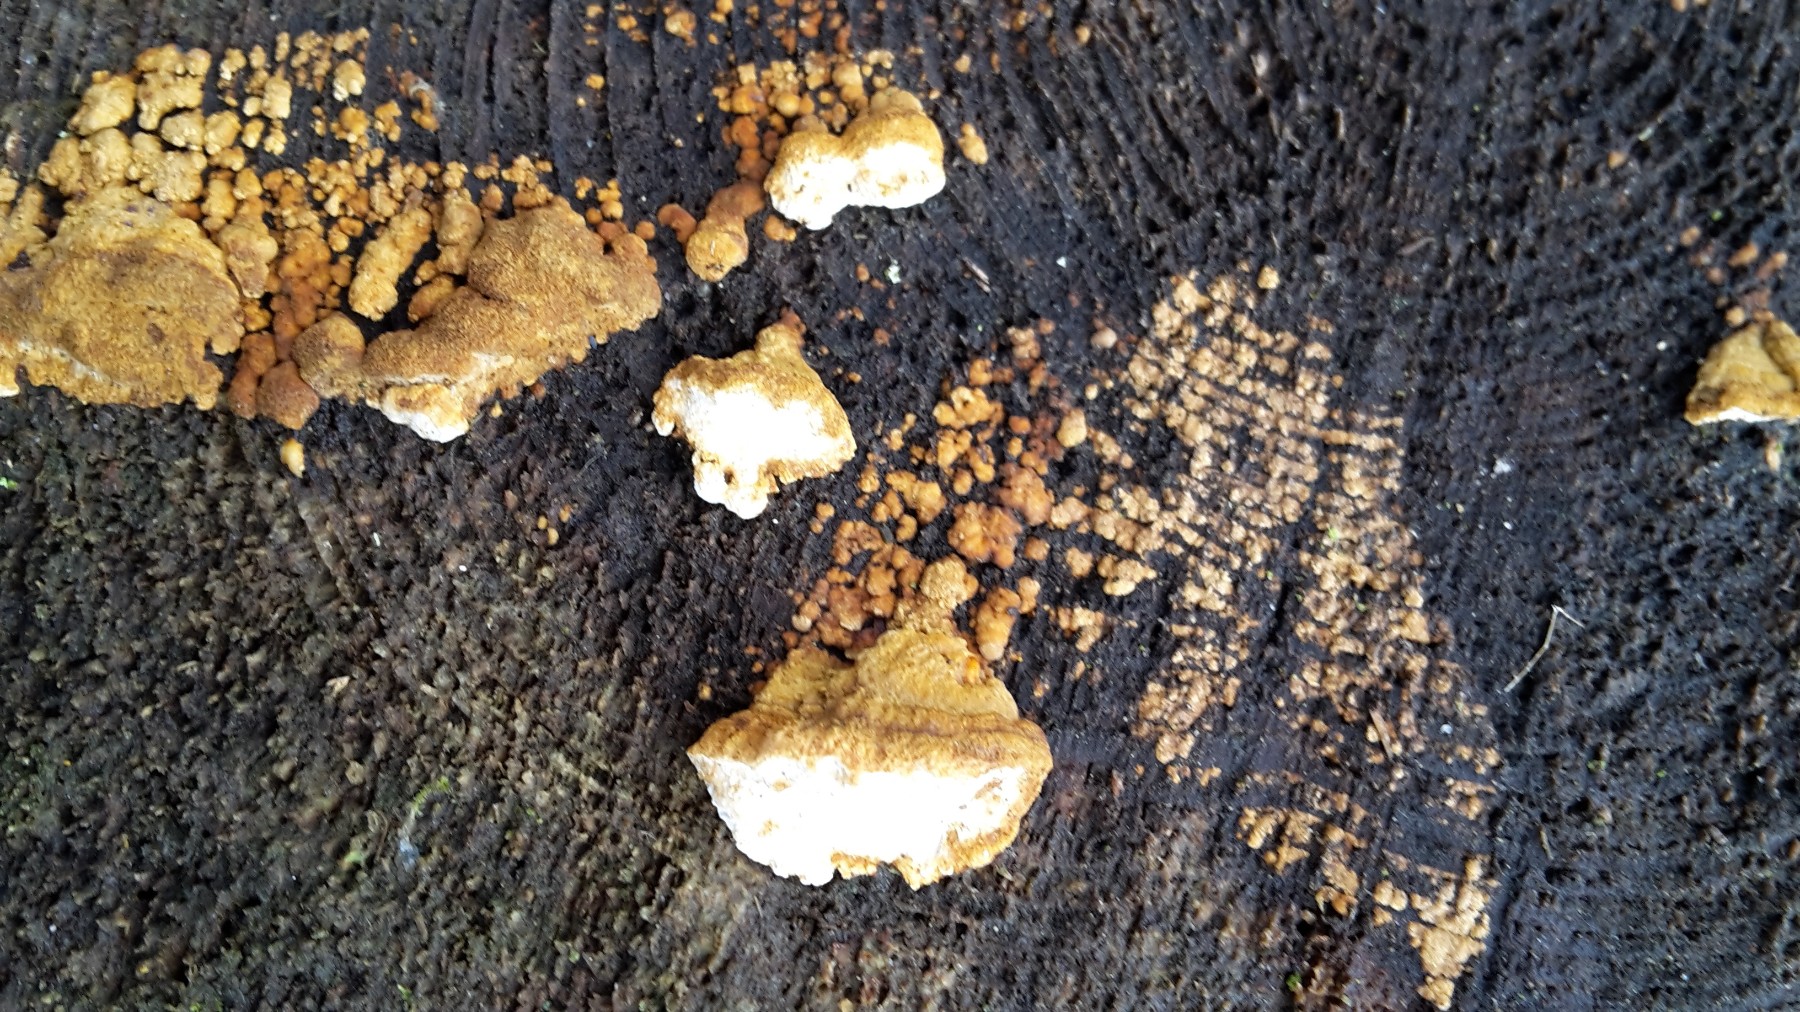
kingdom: Fungi
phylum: Basidiomycota
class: Agaricomycetes
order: Polyporales
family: Fomitopsidaceae
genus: Neoantrodia
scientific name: Neoantrodia serialis
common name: række-sejporesvamp
